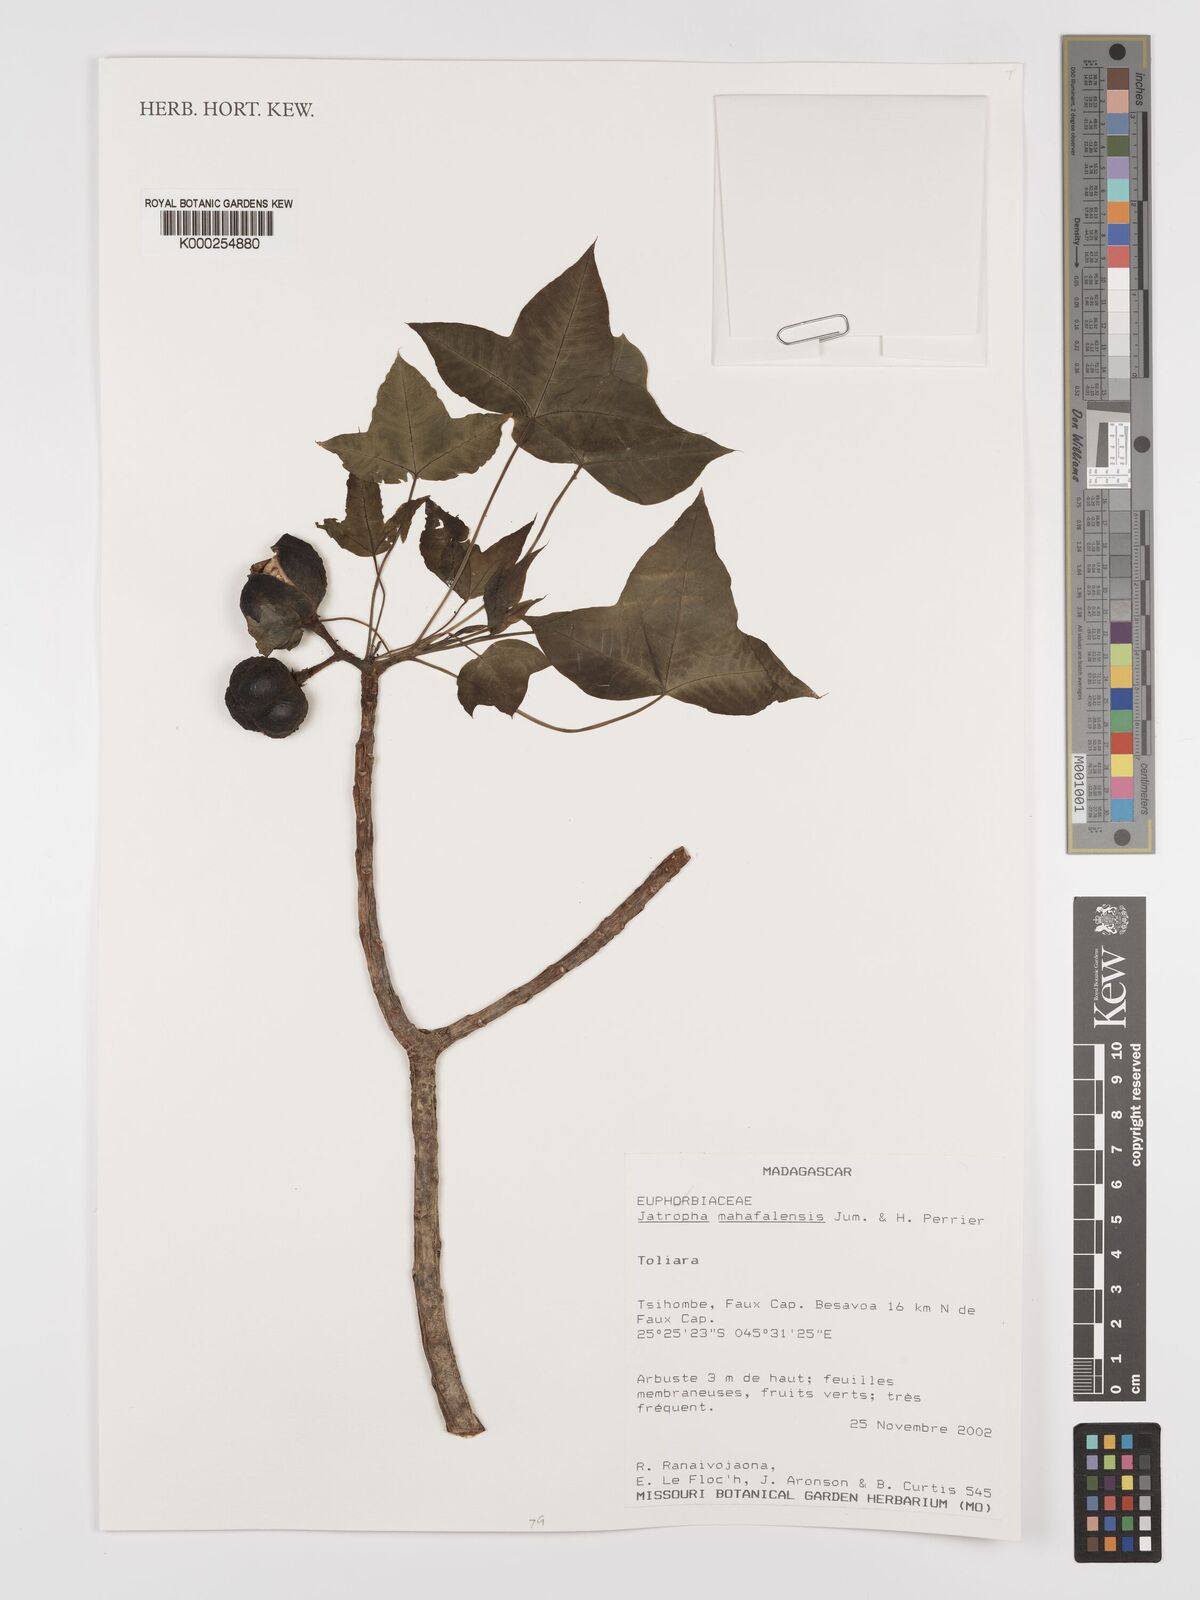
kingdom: Plantae
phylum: Tracheophyta
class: Magnoliopsida
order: Malpighiales
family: Euphorbiaceae
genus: Jatropha
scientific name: Jatropha mahafalensis
